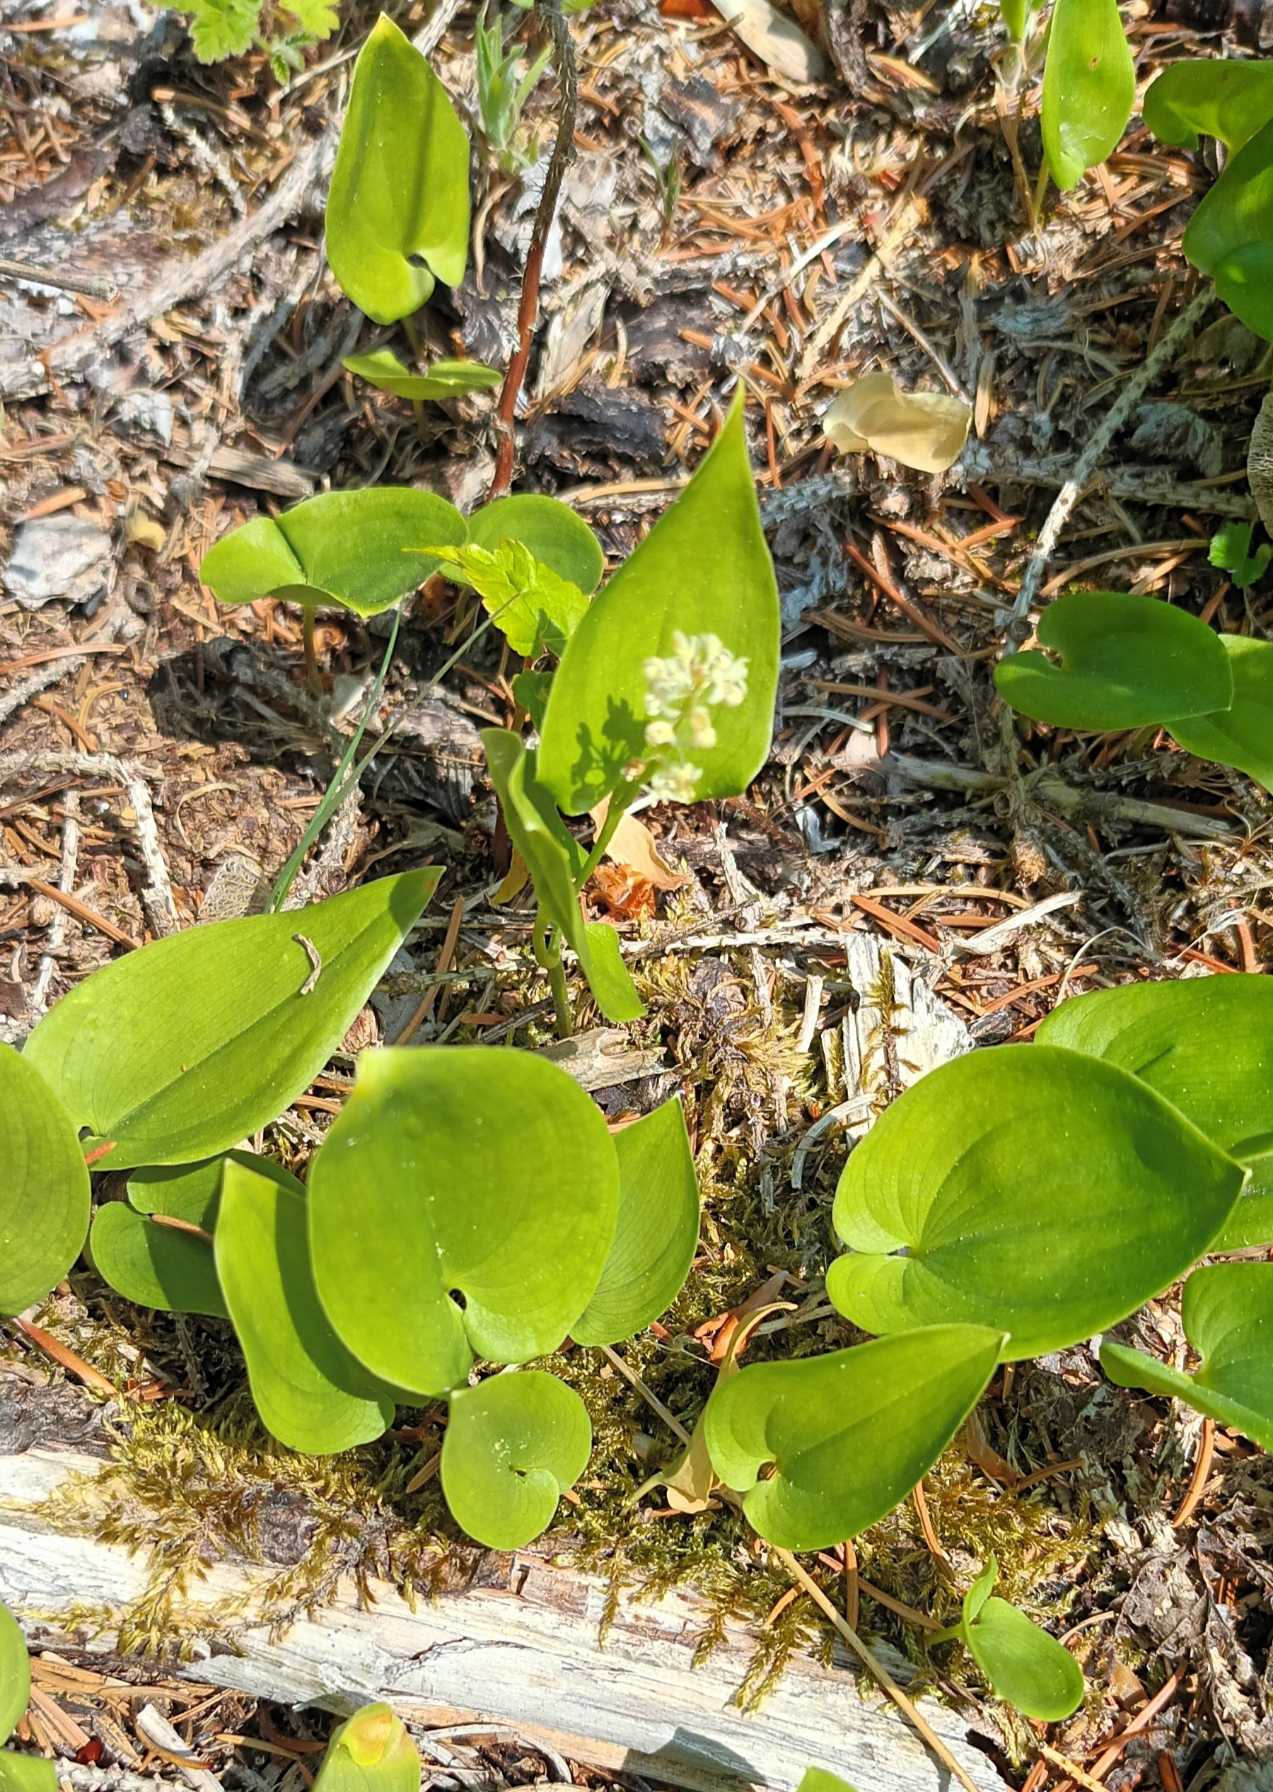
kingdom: Plantae
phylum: Tracheophyta
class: Liliopsida
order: Asparagales
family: Asparagaceae
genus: Maianthemum
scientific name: Maianthemum bifolium
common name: Majblomst
